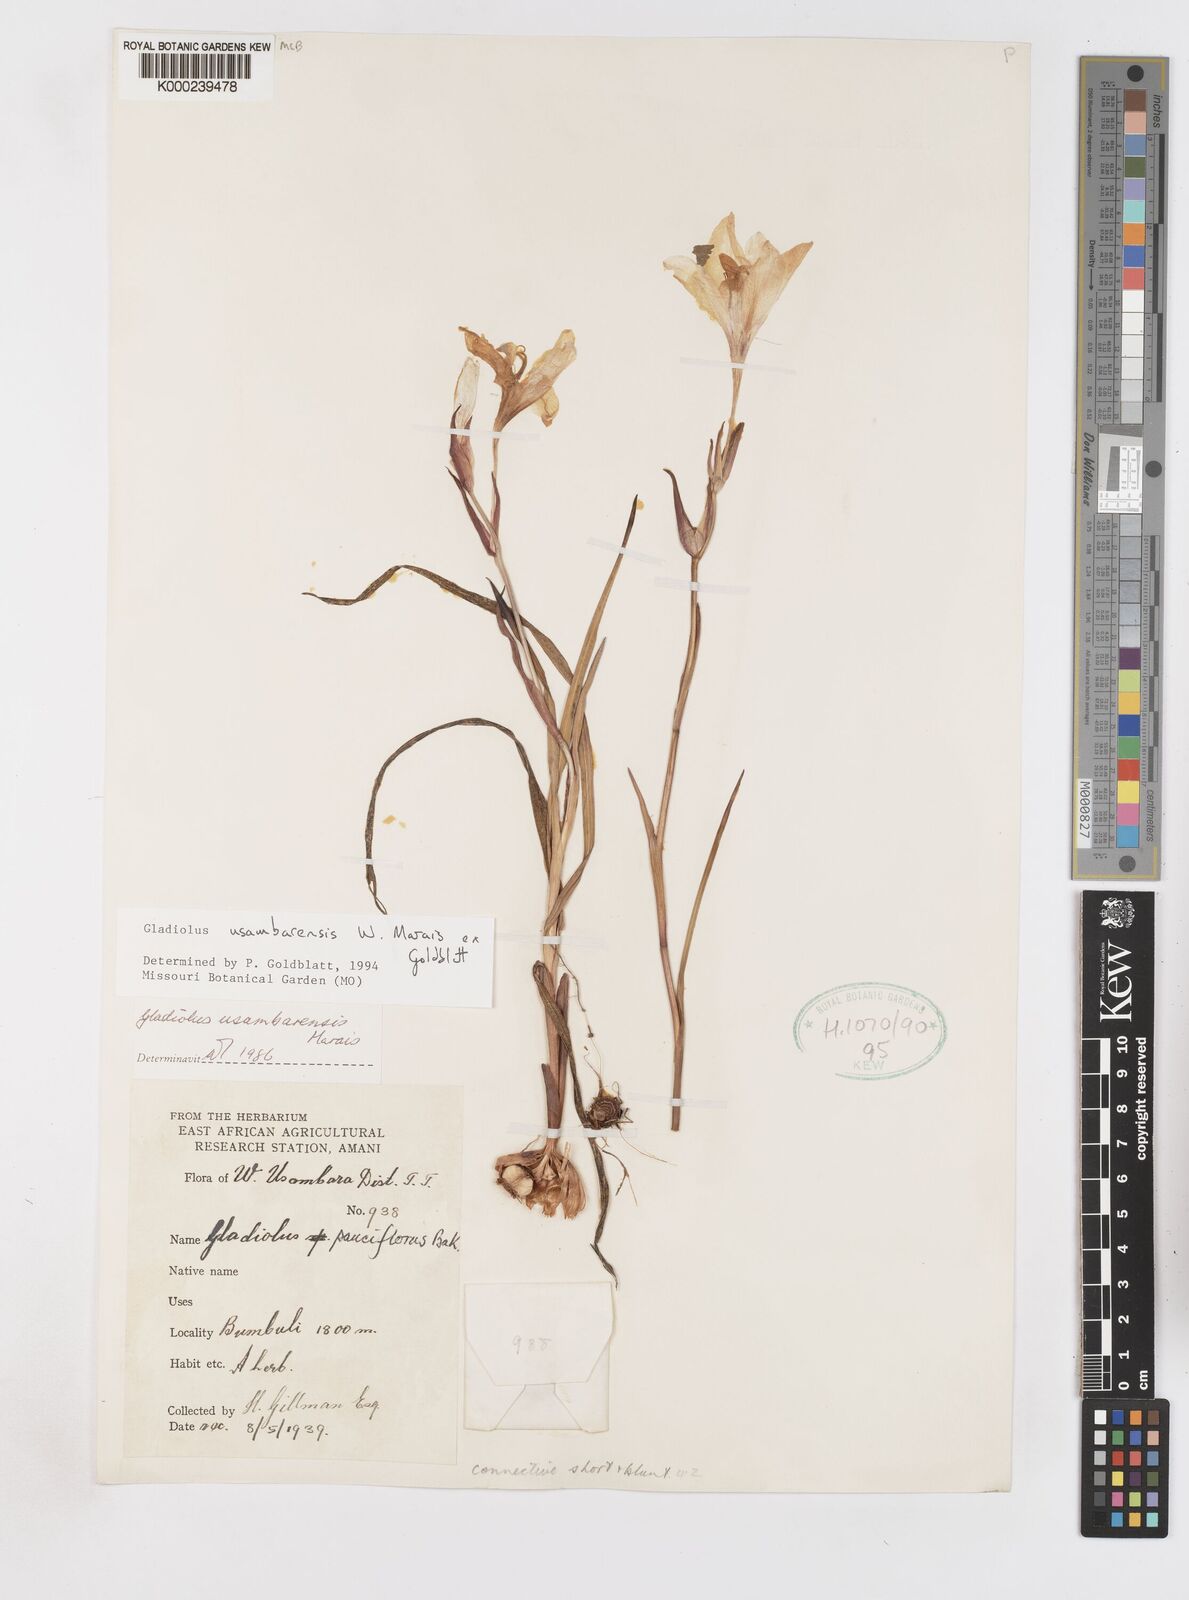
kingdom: Plantae
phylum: Tracheophyta
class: Liliopsida
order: Asparagales
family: Iridaceae
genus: Gladiolus
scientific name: Gladiolus usambarensis
